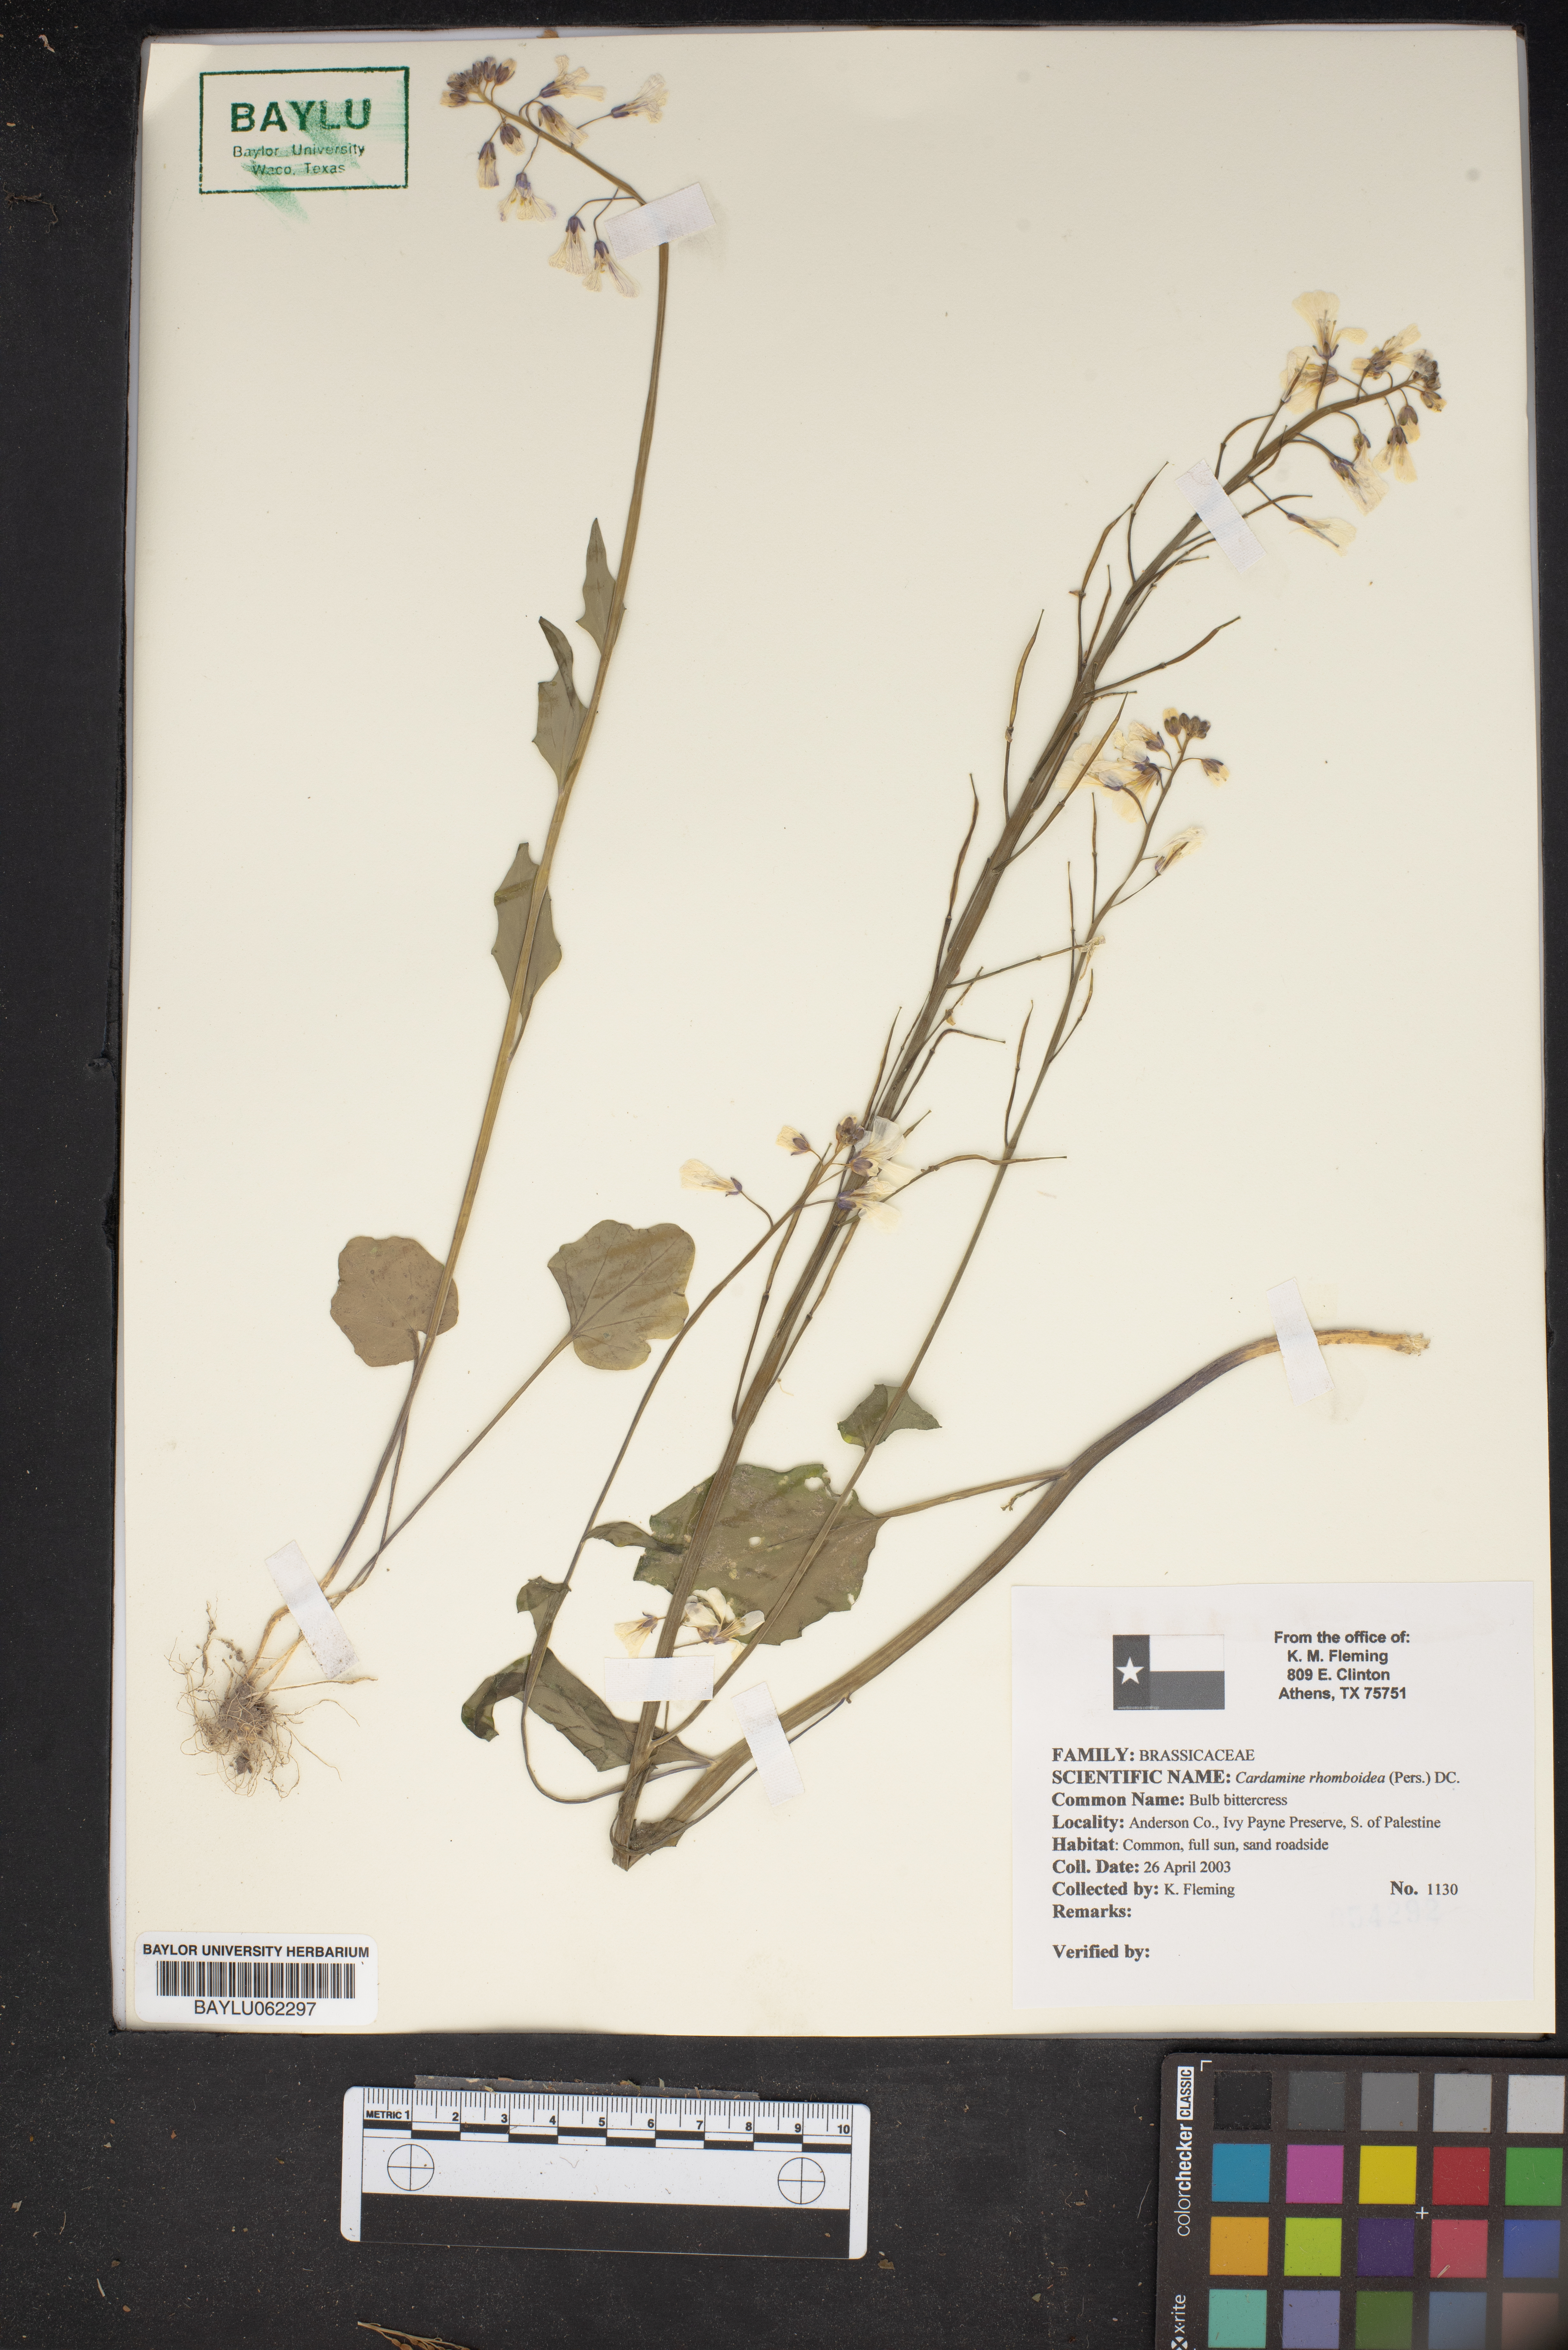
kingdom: Plantae
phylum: Tracheophyta
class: Magnoliopsida
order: Brassicales
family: Brassicaceae
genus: Cardamine
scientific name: Cardamine bulbosa
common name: Spring cress
